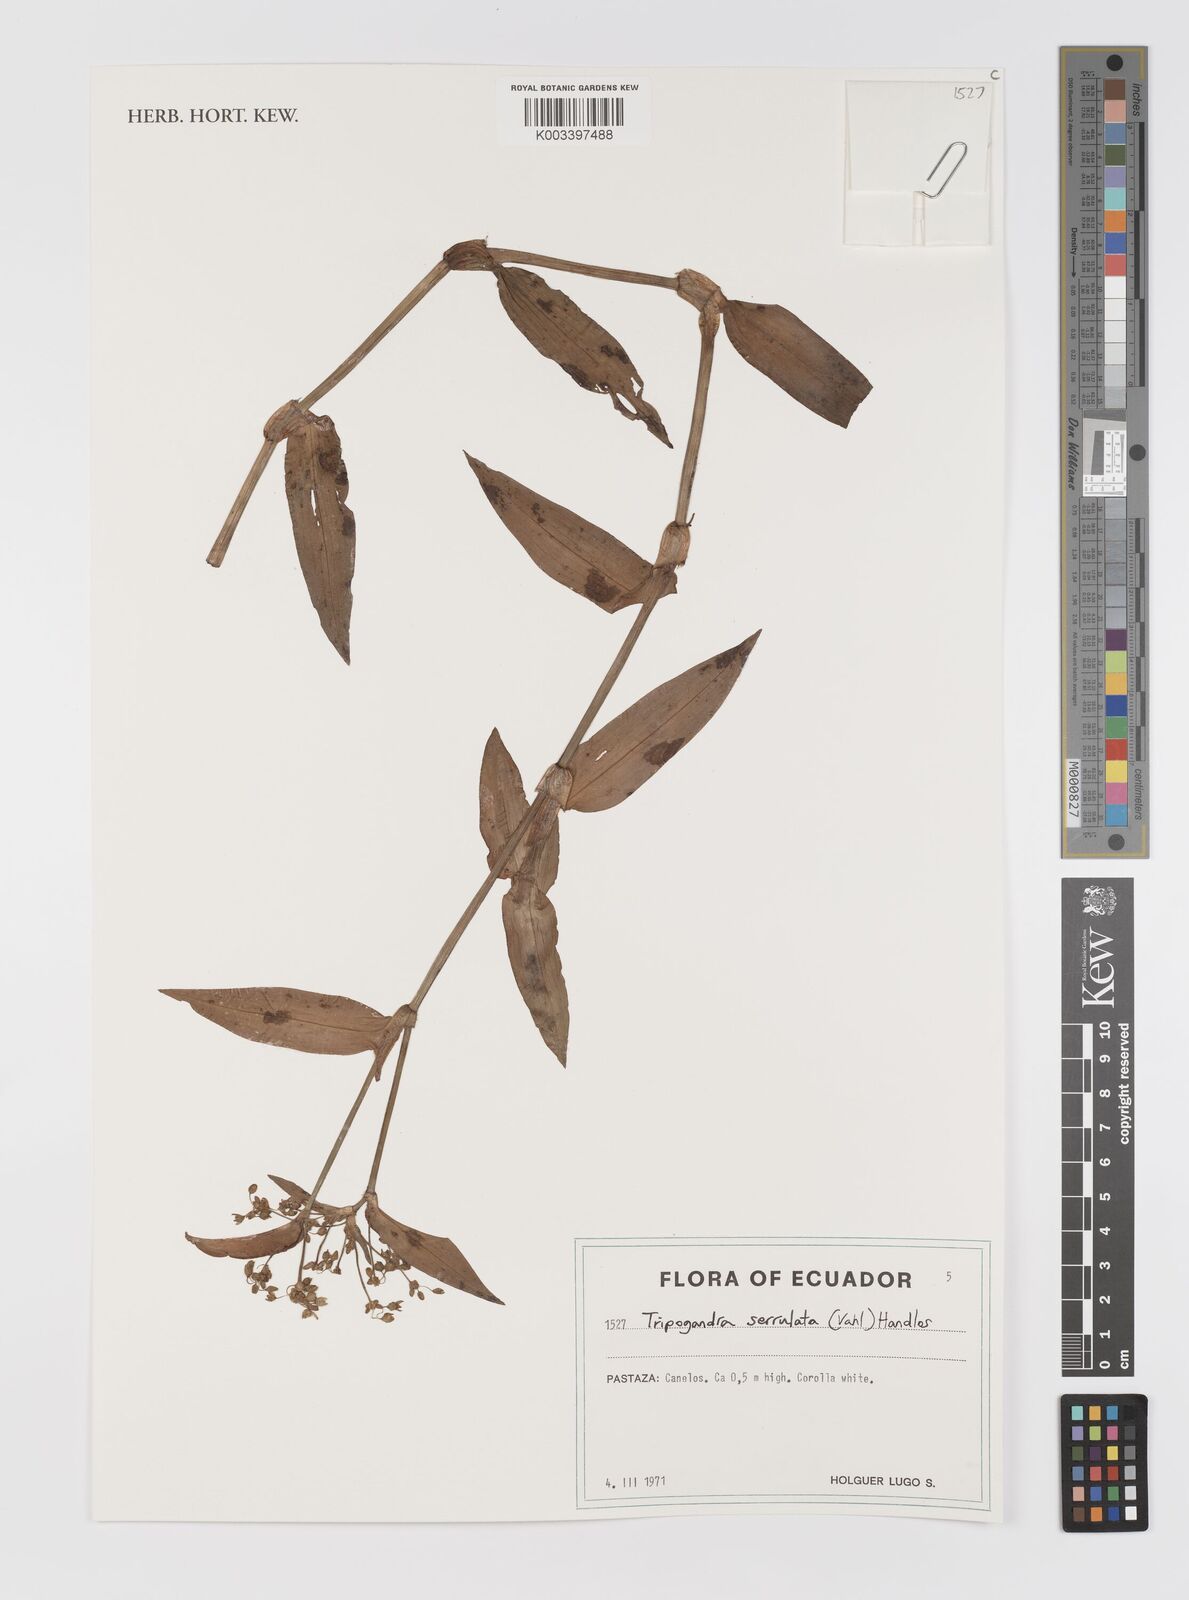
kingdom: Plantae
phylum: Tracheophyta
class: Liliopsida
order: Commelinales
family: Commelinaceae
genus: Callisia
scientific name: Callisia serrulata
